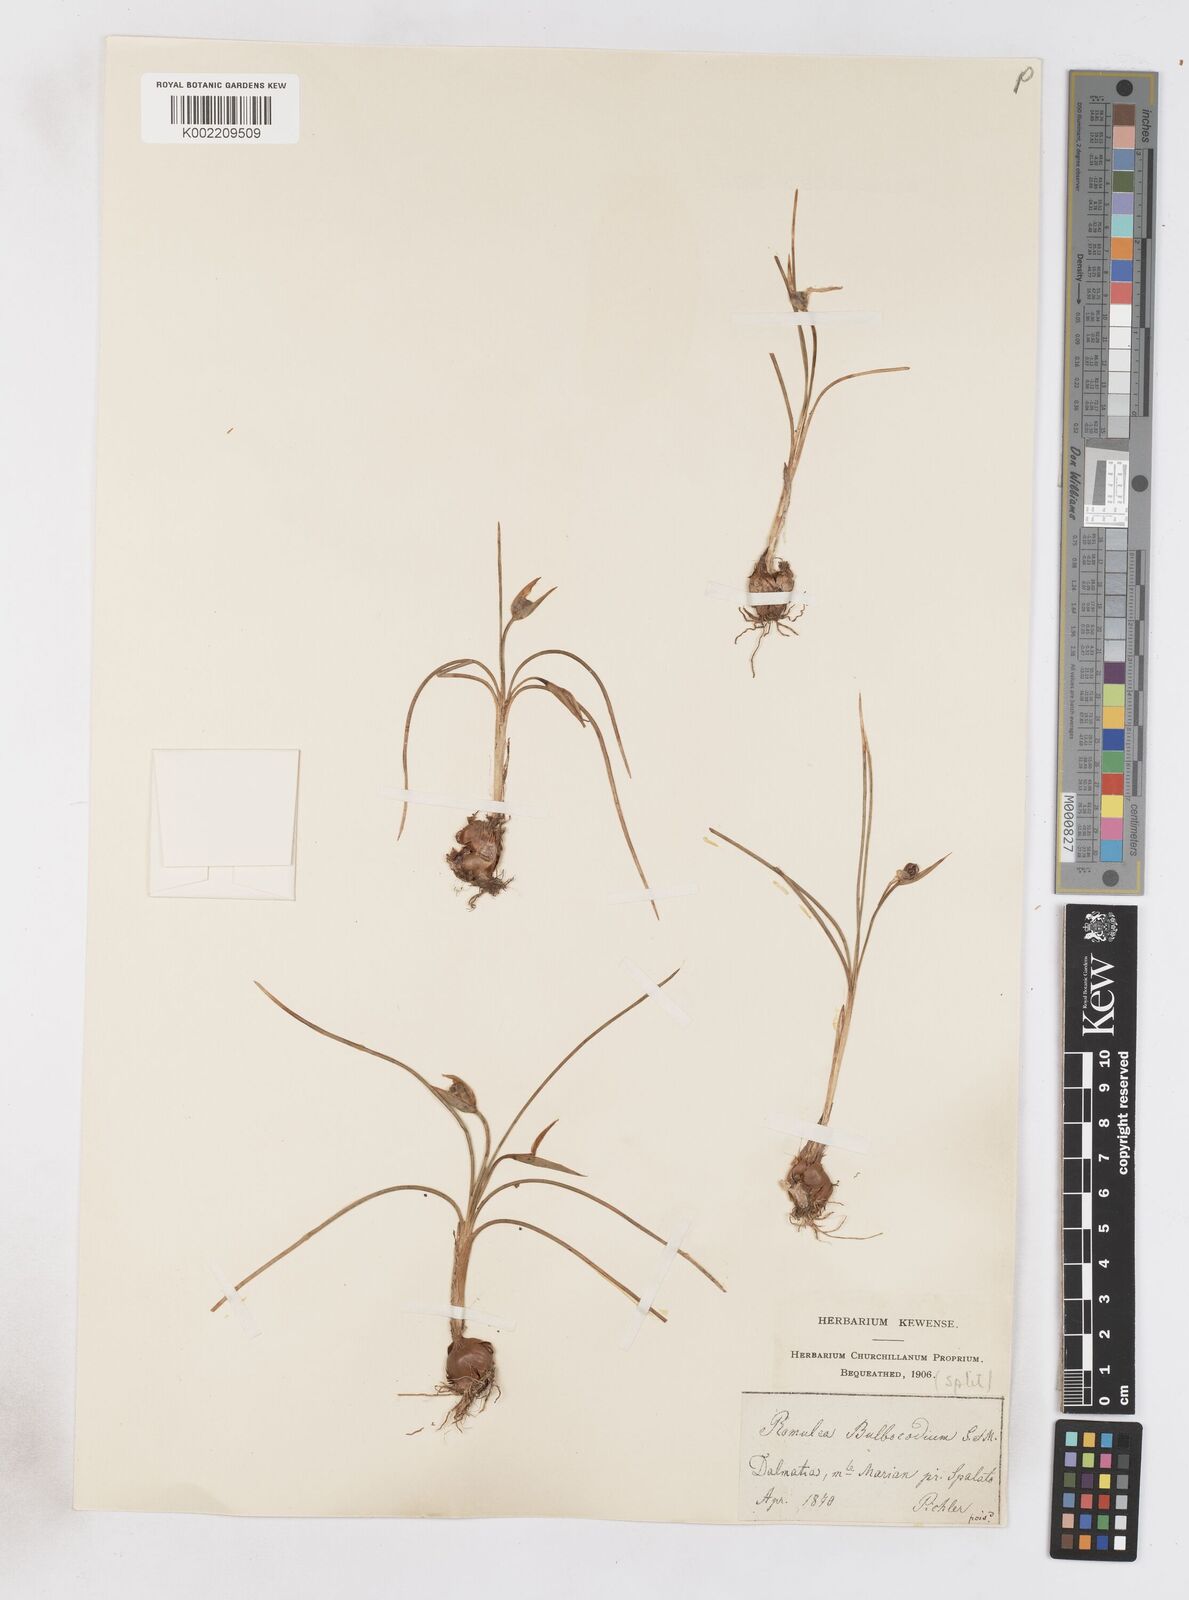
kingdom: Plantae
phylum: Tracheophyta
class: Liliopsida
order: Asparagales
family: Iridaceae
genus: Romulea
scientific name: Romulea bulbocodium
